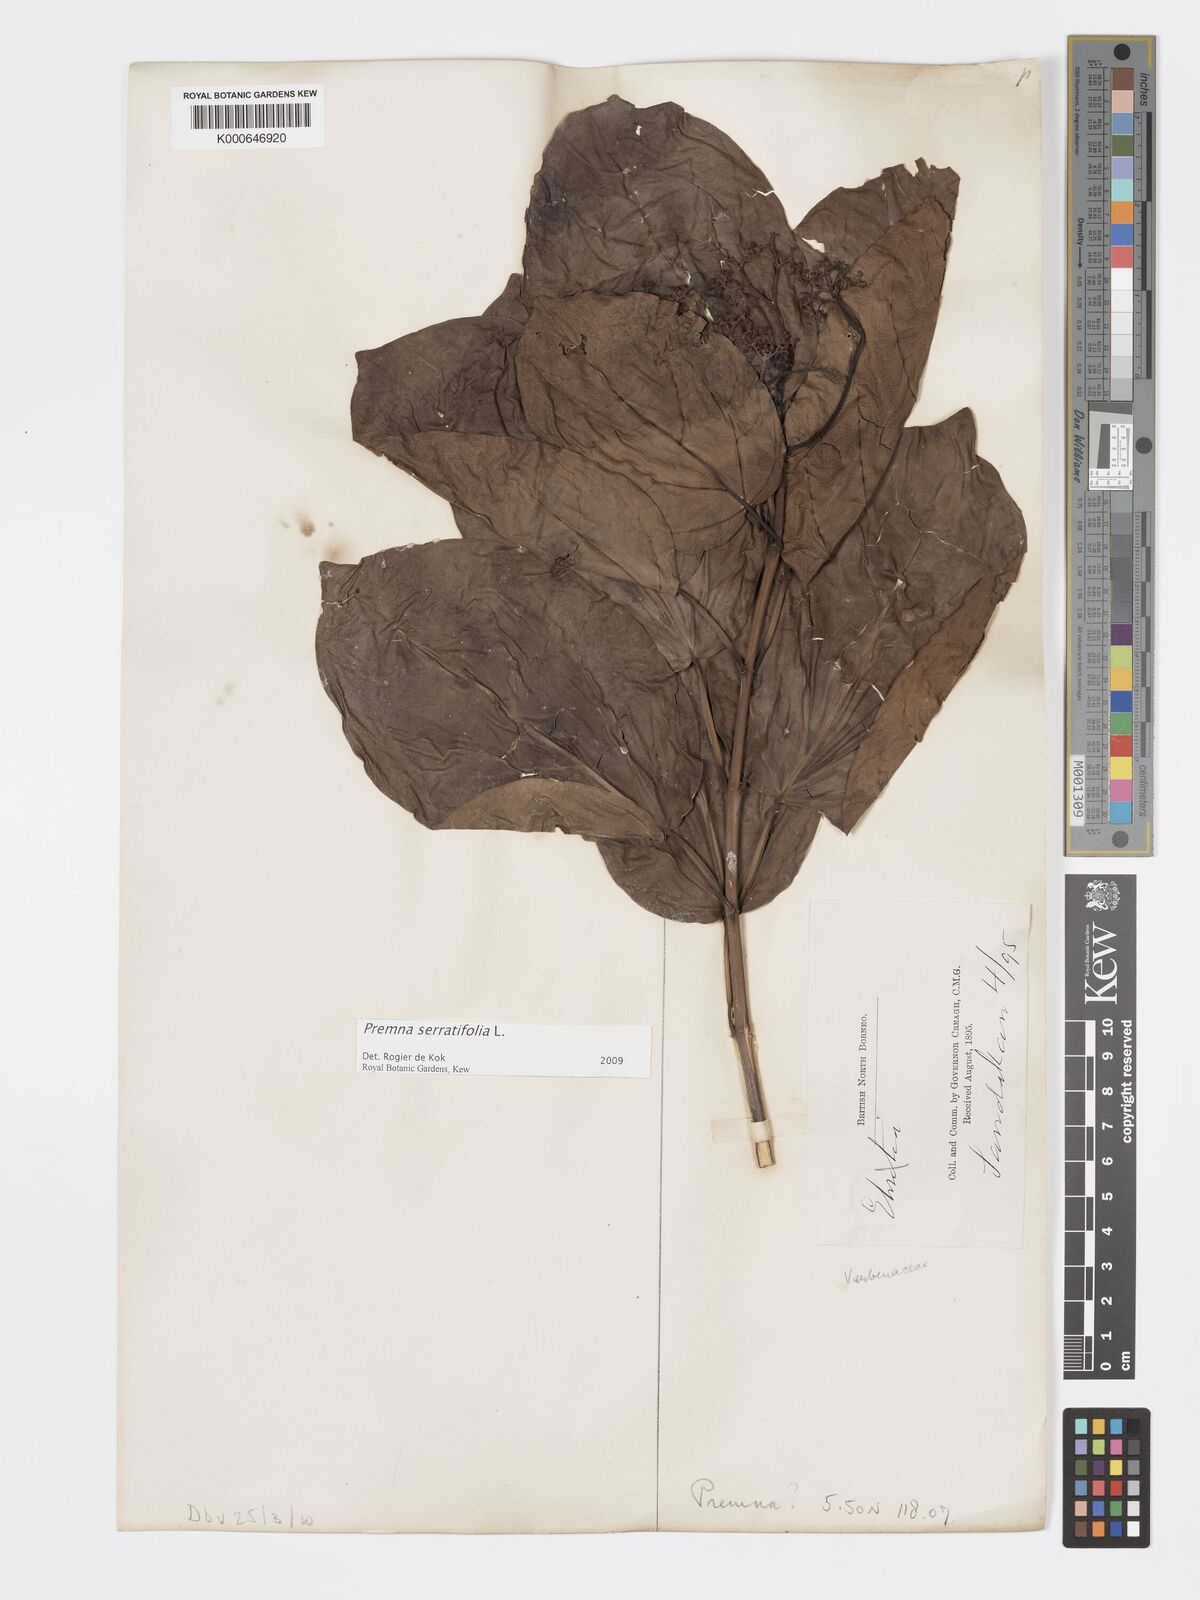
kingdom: Plantae
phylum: Tracheophyta
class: Magnoliopsida
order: Lamiales
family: Lamiaceae
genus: Premna
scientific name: Premna serratifolia
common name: Bastard guelder
